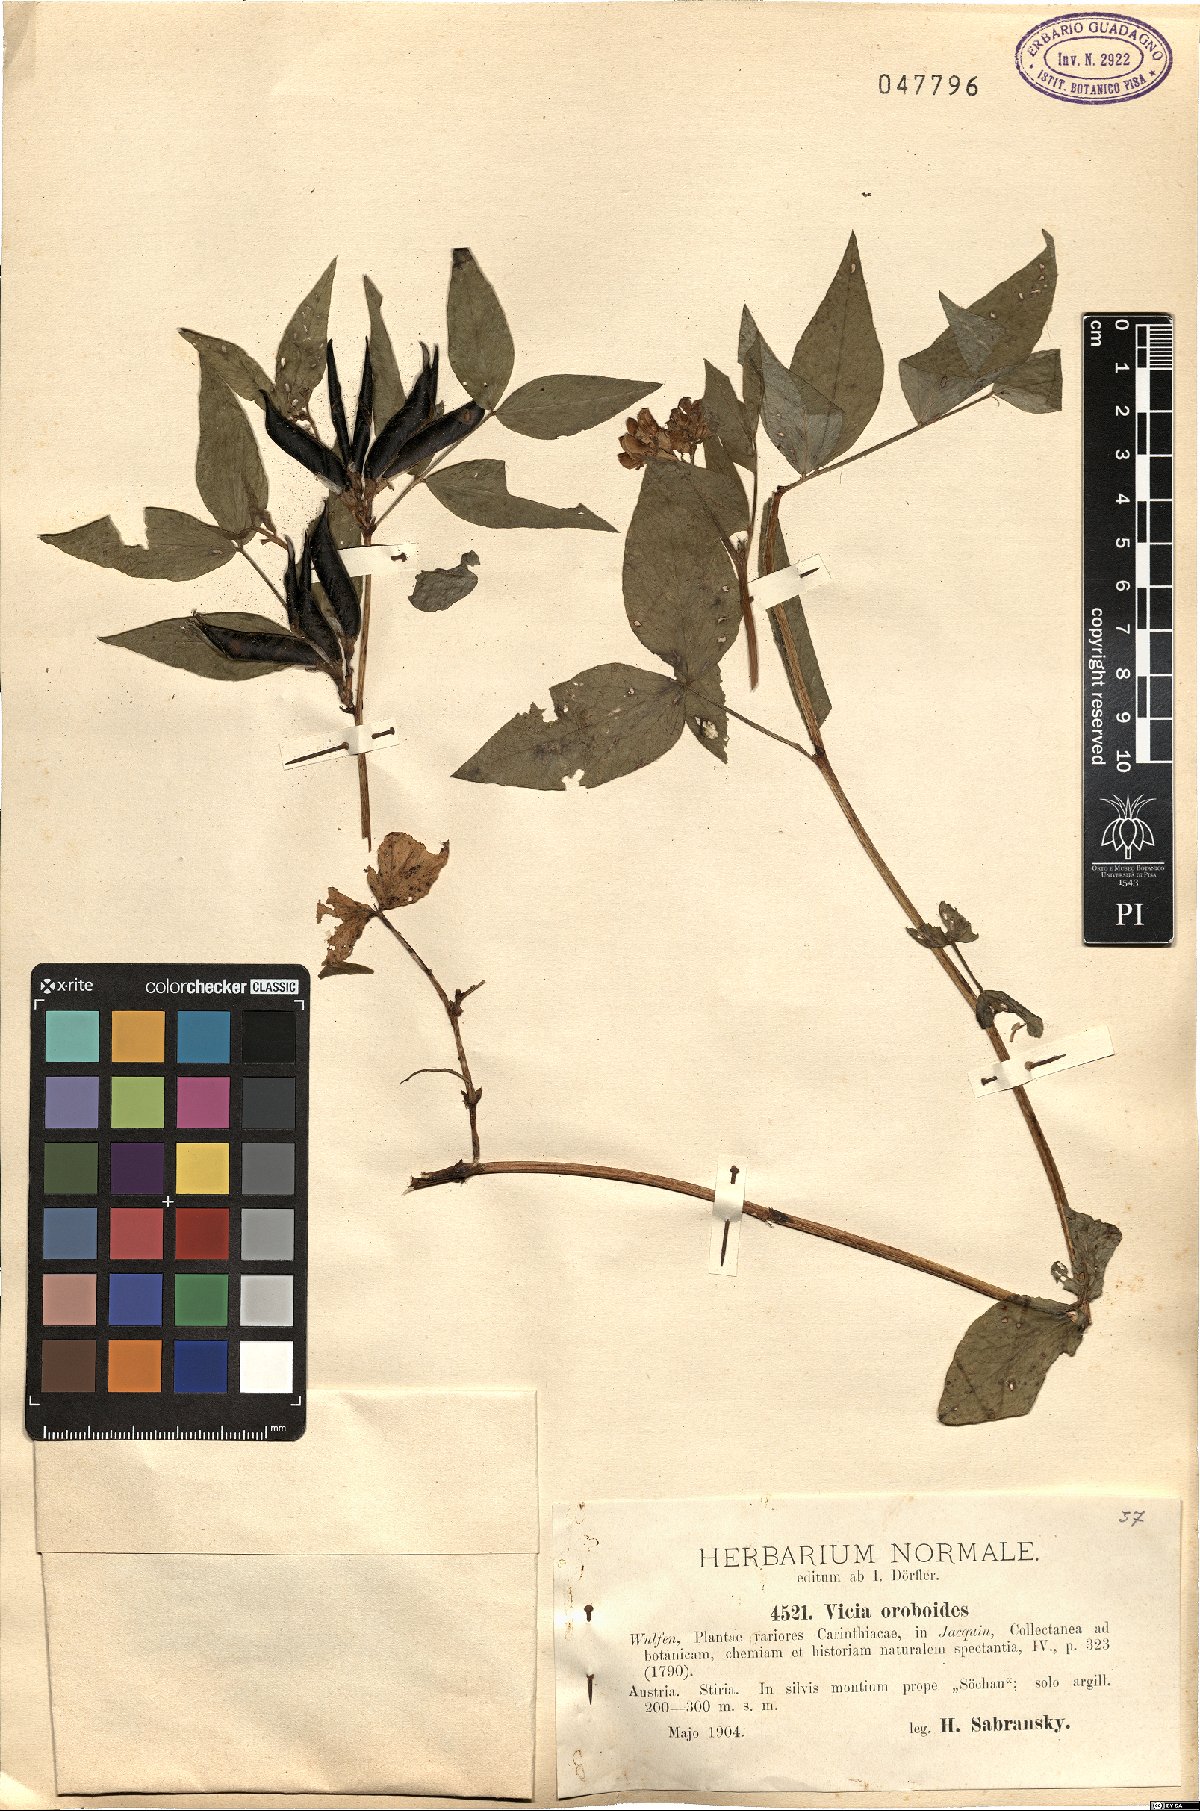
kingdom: Plantae
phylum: Tracheophyta
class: Magnoliopsida
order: Fabales
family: Fabaceae
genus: Vicia
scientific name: Vicia oroboides
